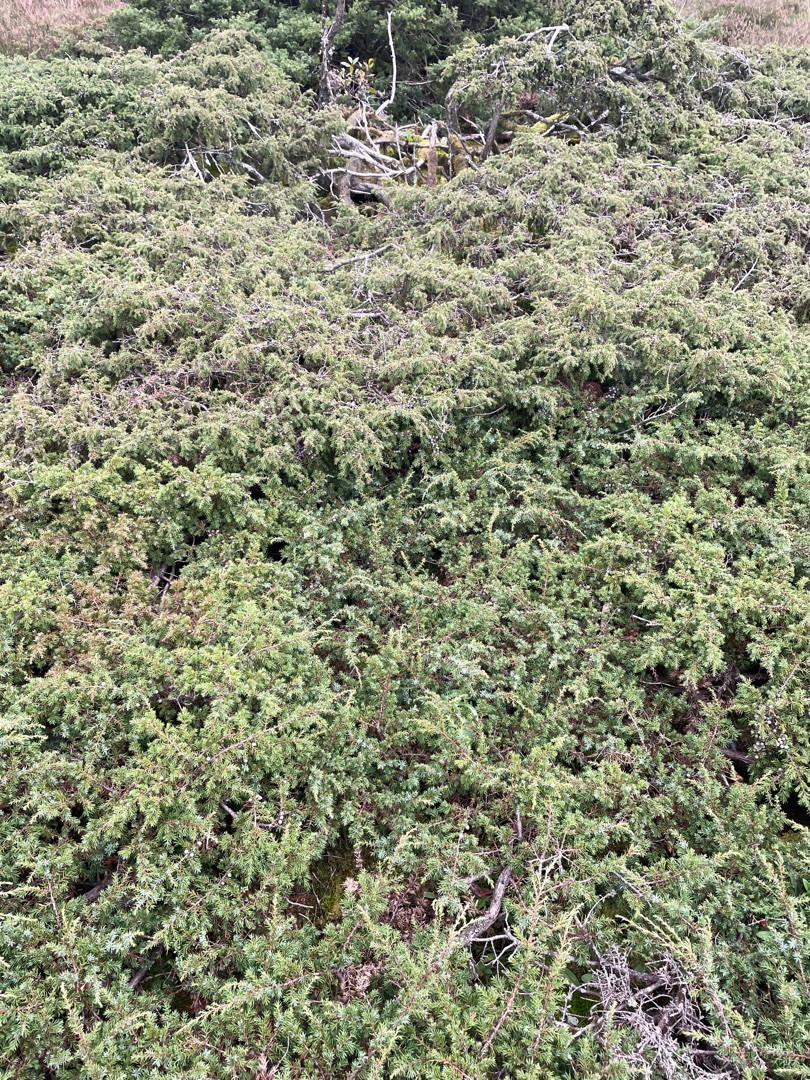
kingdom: Plantae
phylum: Tracheophyta
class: Pinopsida
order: Pinales
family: Cupressaceae
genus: Juniperus
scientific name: Juniperus communis
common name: Almindelig ene
